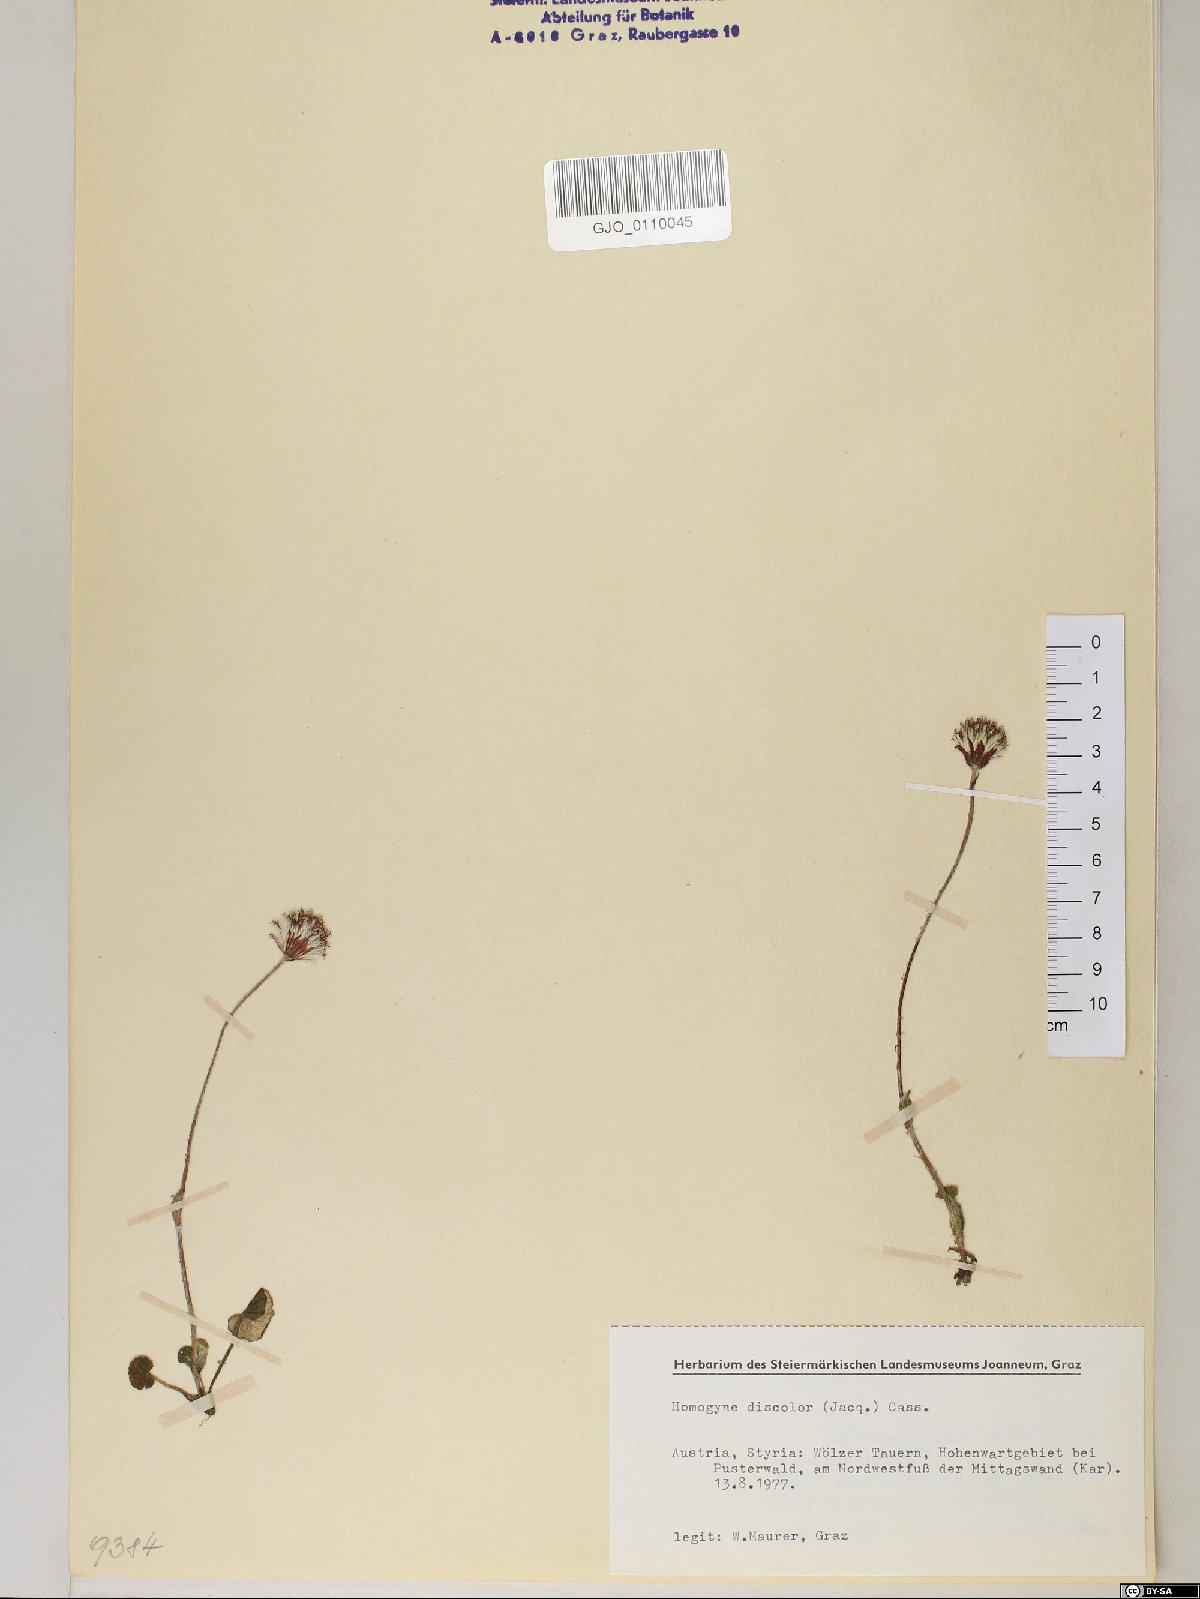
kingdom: Plantae
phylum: Tracheophyta
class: Magnoliopsida
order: Asterales
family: Asteraceae
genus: Homogyne
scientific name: Homogyne discolor
